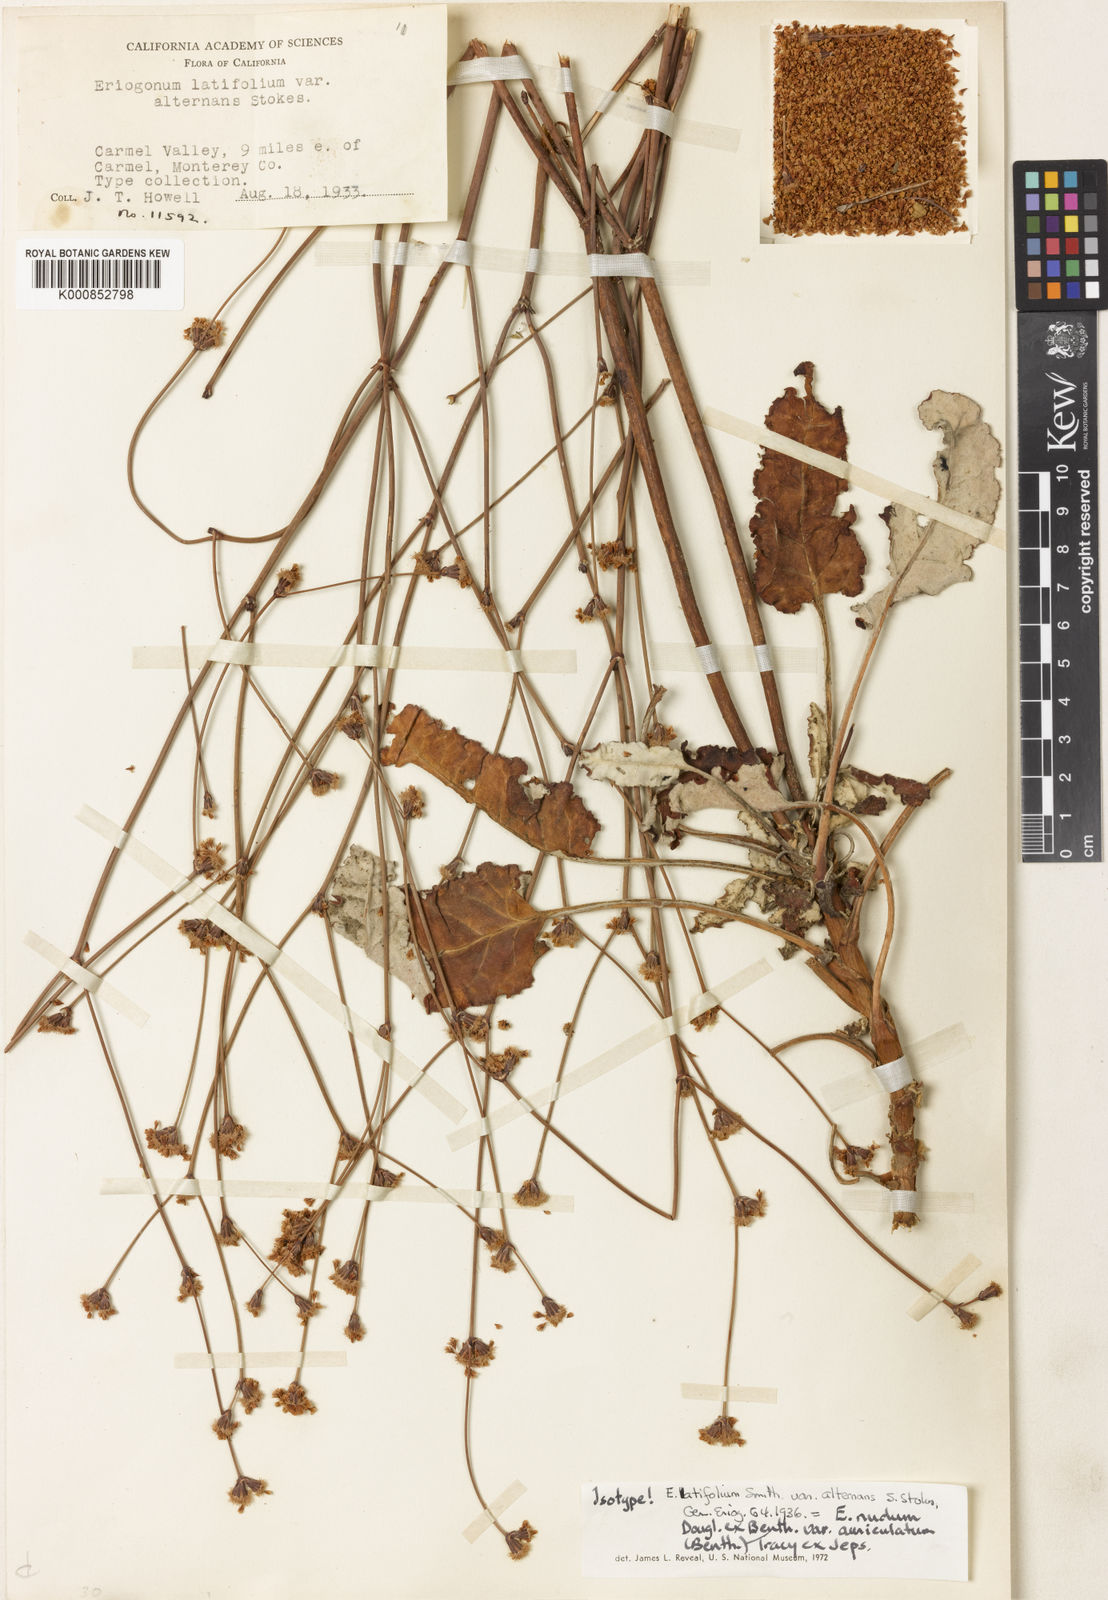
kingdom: Plantae
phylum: Tracheophyta
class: Magnoliopsida
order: Caryophyllales
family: Polygonaceae
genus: Eriogonum
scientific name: Eriogonum nudum
